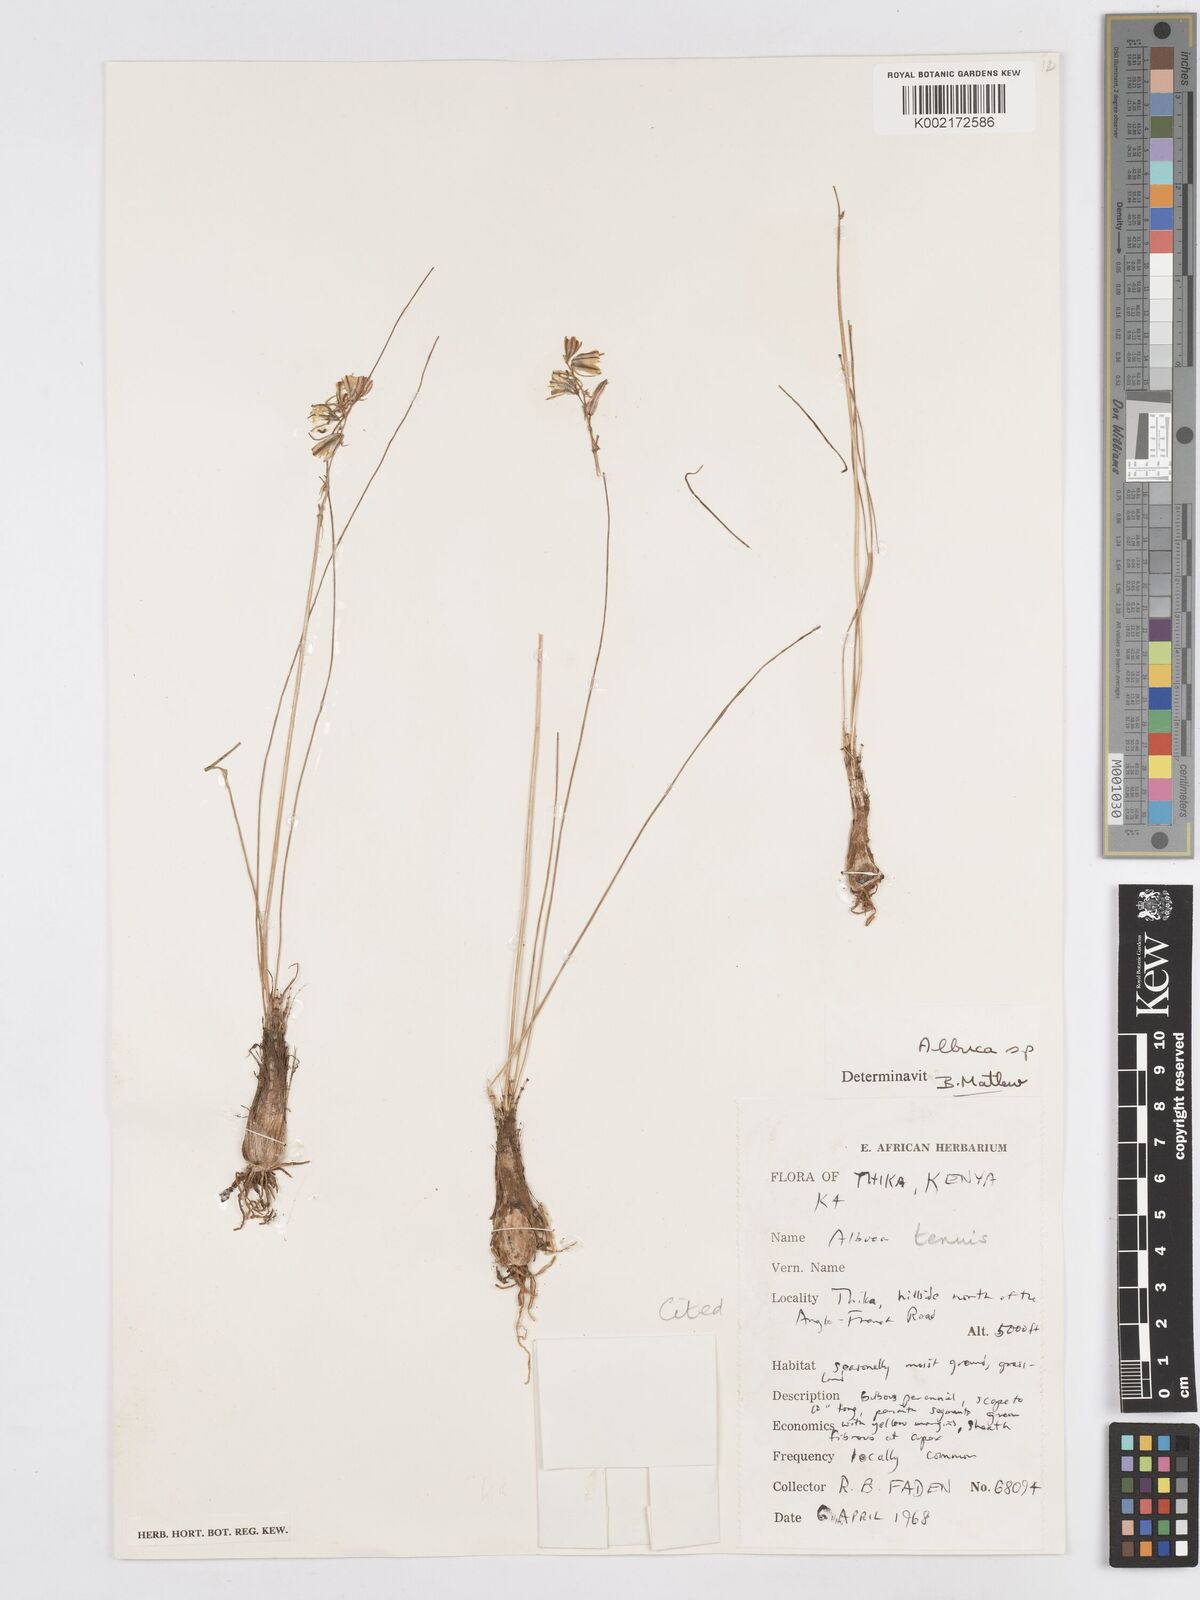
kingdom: Plantae
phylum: Tracheophyta
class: Liliopsida
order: Asparagales
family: Asparagaceae
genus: Albuca
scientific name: Albuca tenuis
